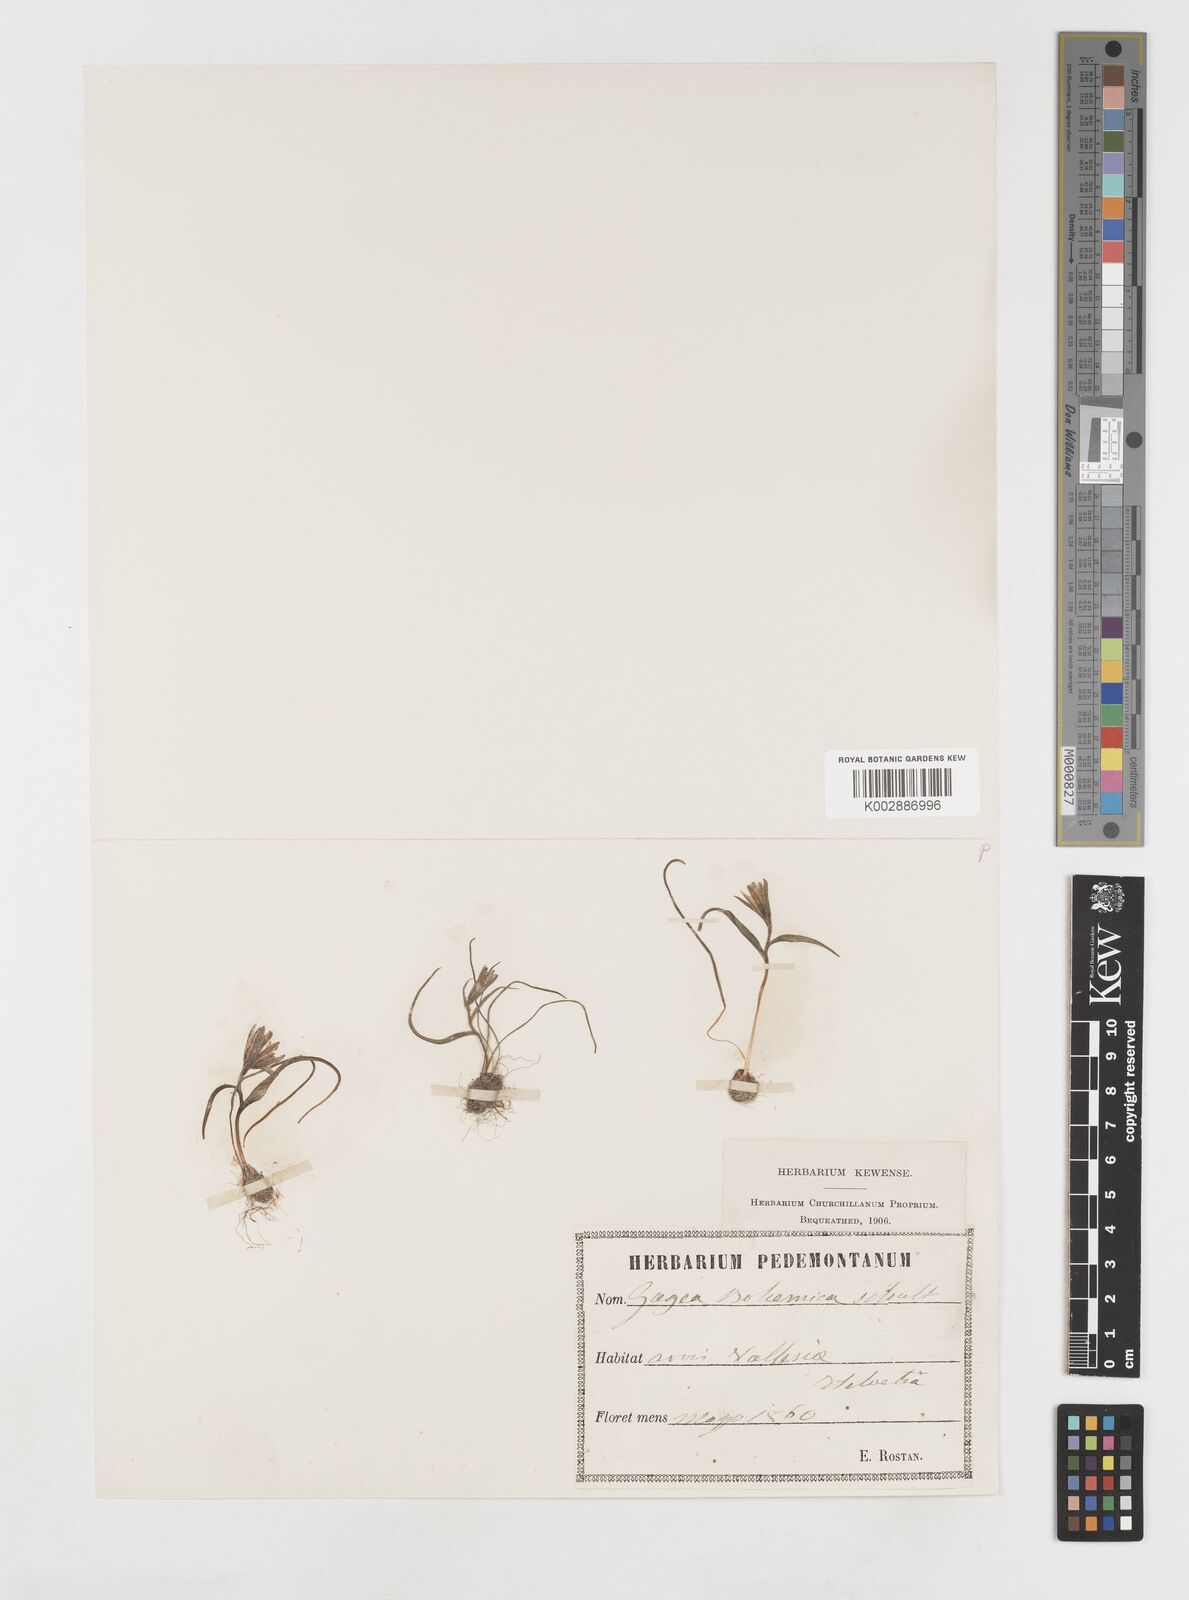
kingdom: Plantae
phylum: Tracheophyta
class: Liliopsida
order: Liliales
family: Liliaceae
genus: Gagea
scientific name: Gagea bohemica
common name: Early star-of-bethlehem
